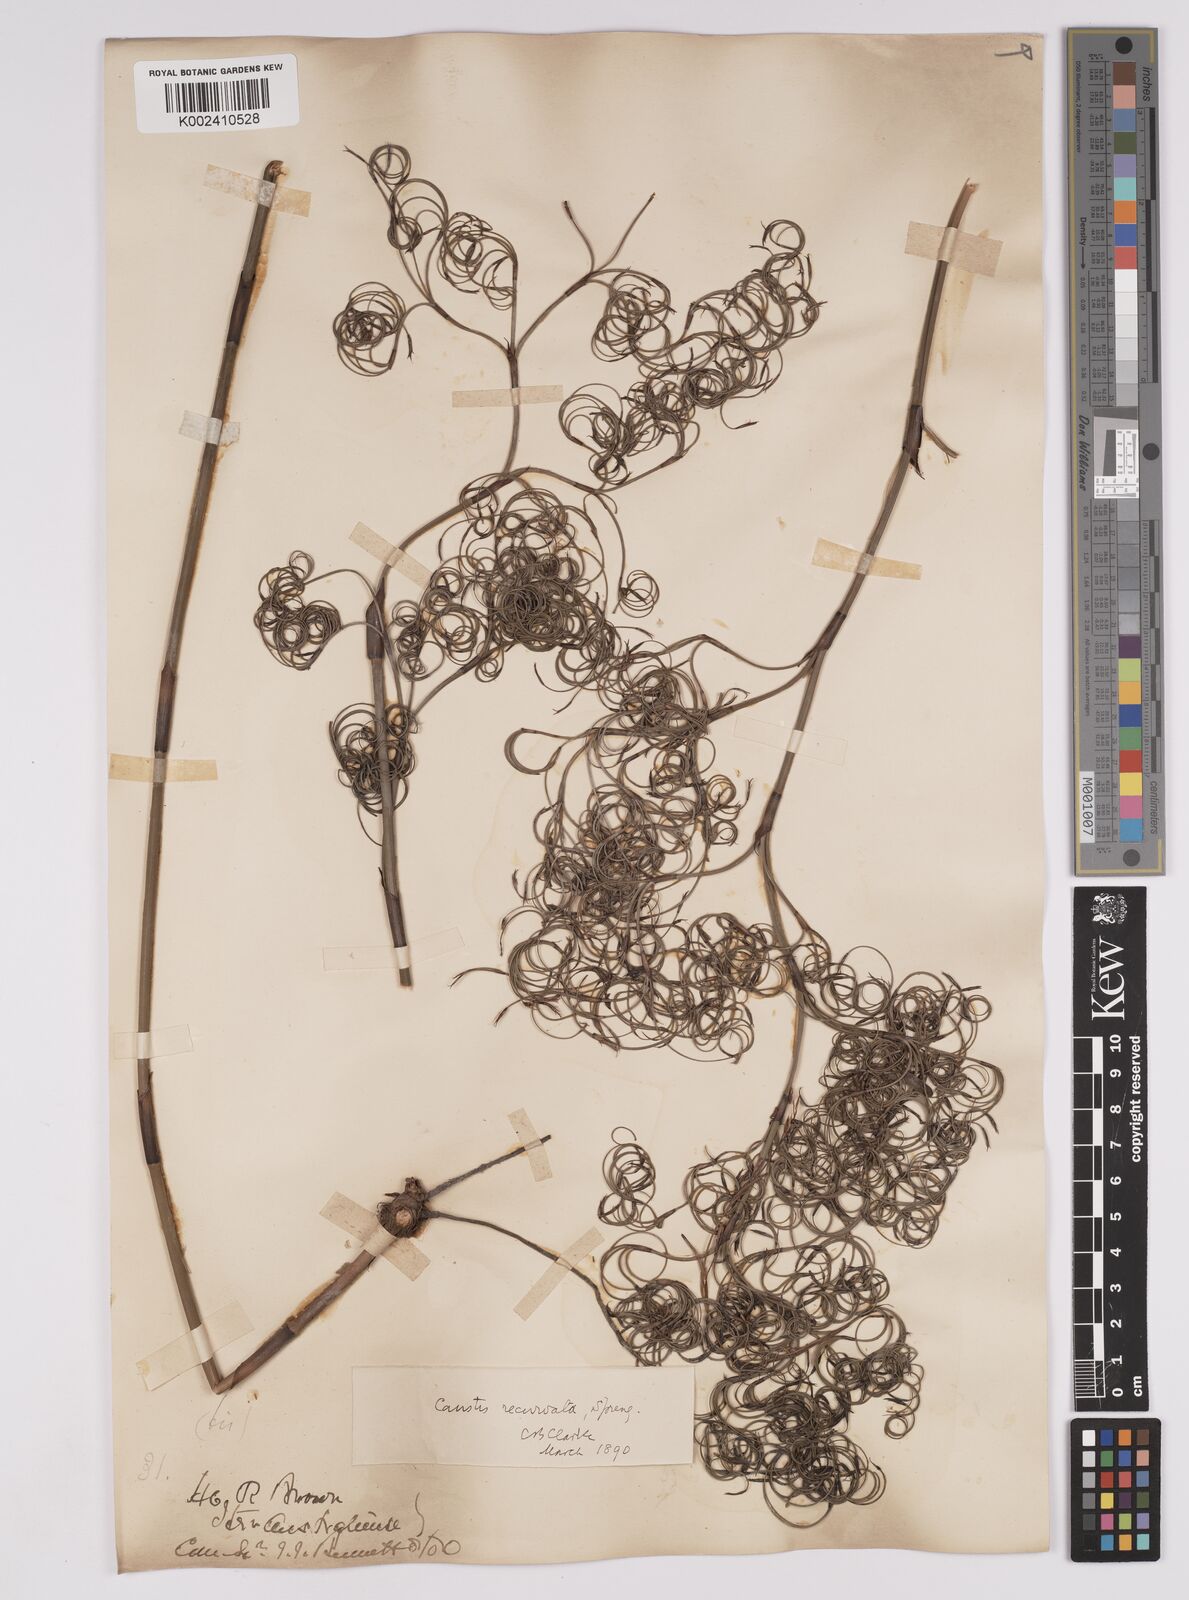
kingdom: Plantae
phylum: Tracheophyta
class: Liliopsida
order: Poales
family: Cyperaceae
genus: Caustis
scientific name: Caustis recurvata
